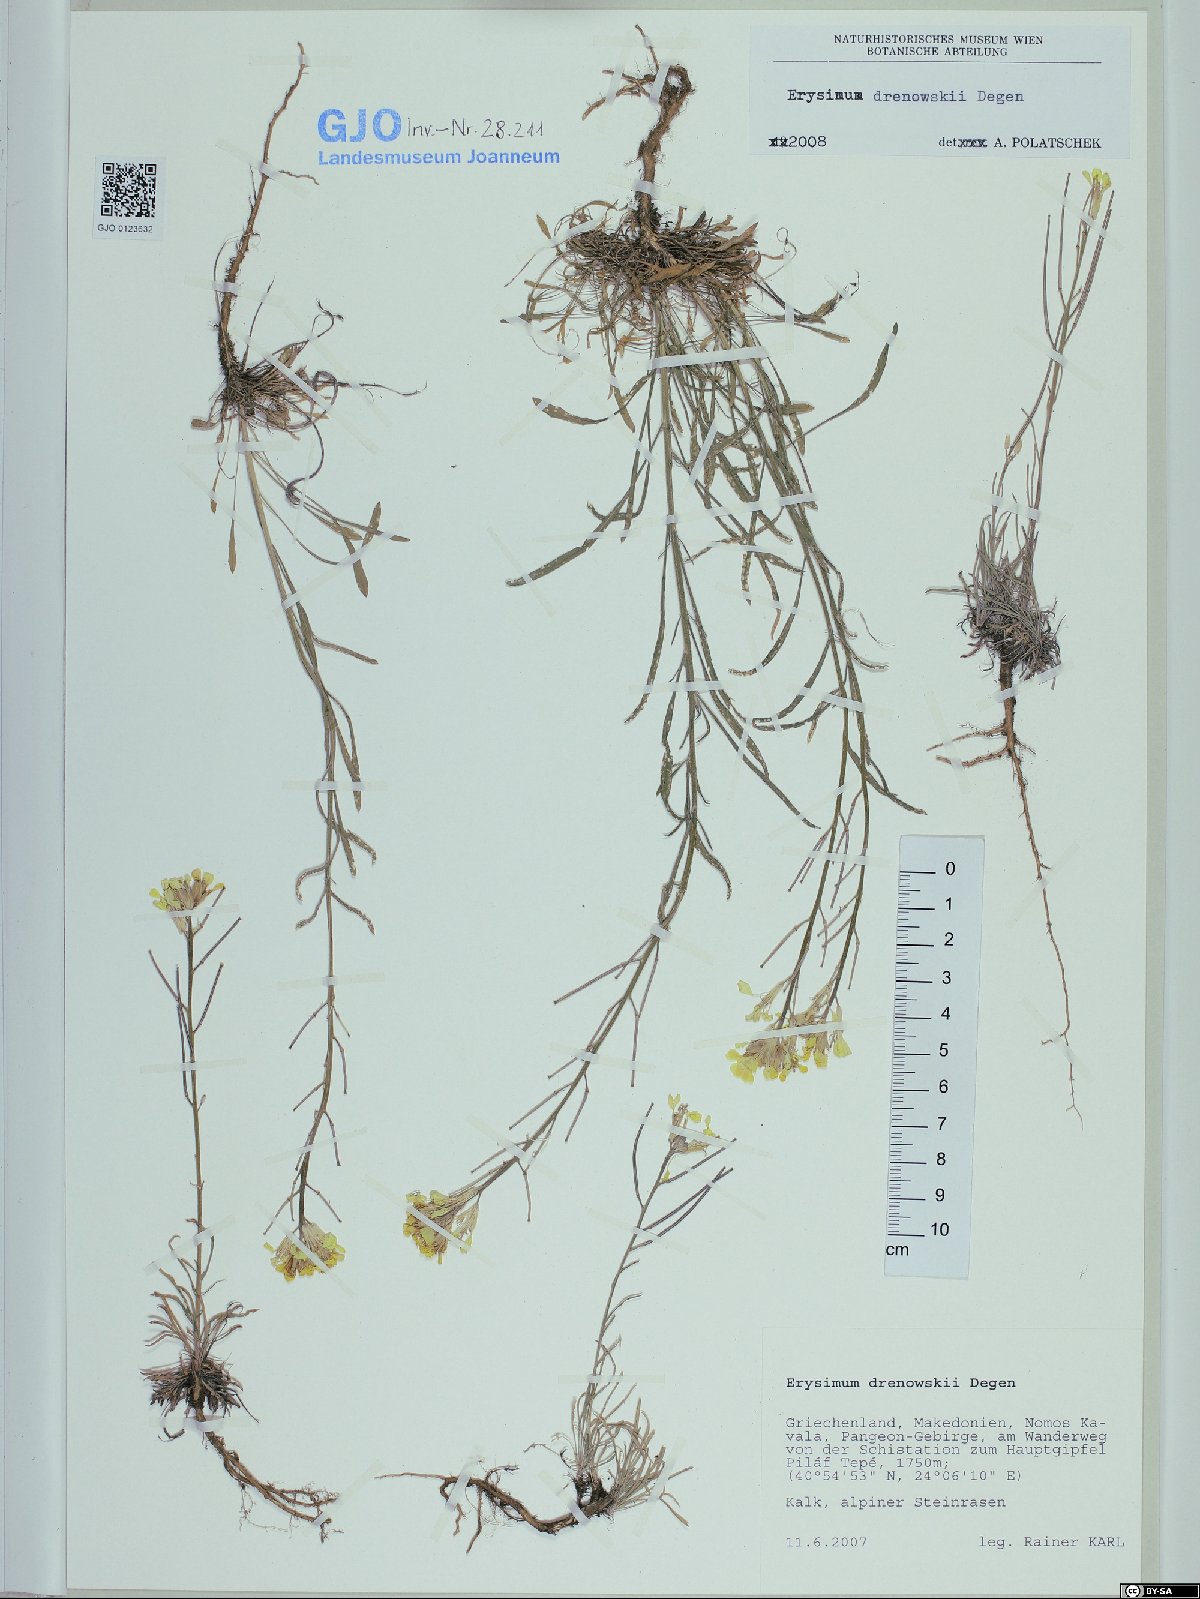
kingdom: Plantae
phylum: Tracheophyta
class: Magnoliopsida
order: Brassicales
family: Brassicaceae
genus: Erysimum
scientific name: Erysimum drenowskii
